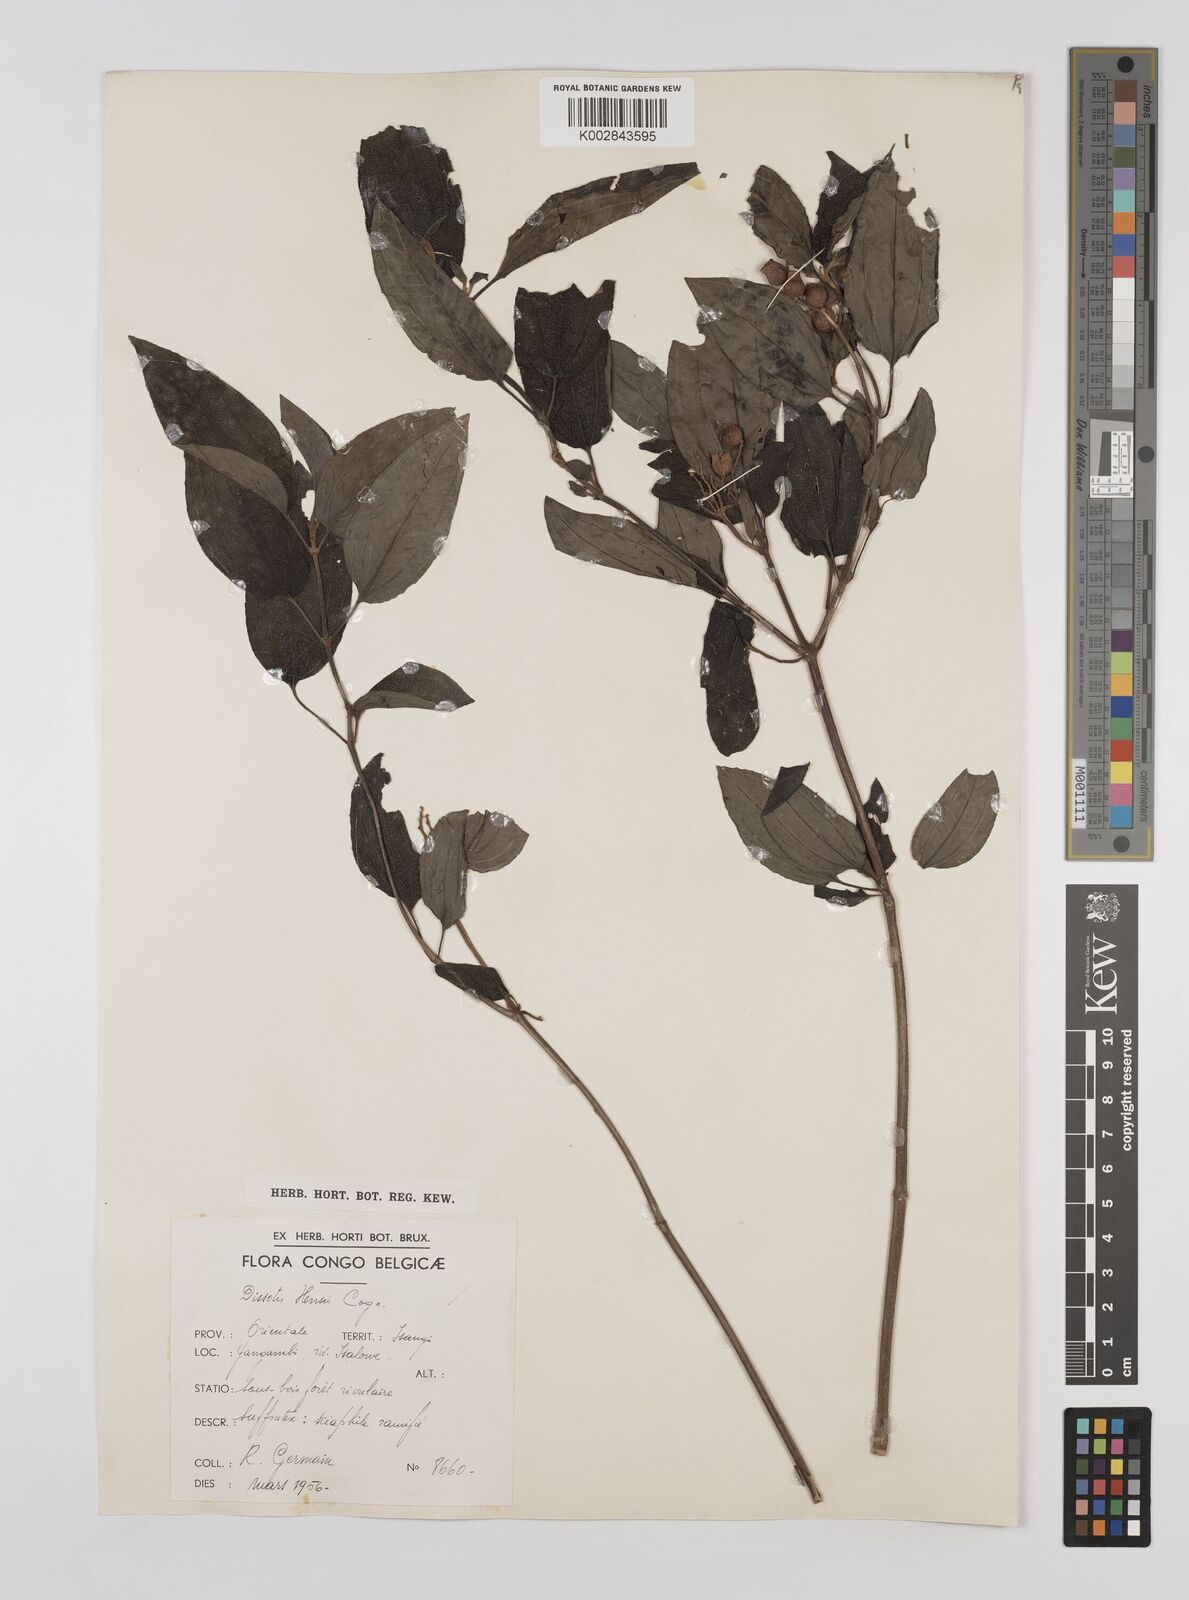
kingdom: Plantae
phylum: Tracheophyta
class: Magnoliopsida
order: Myrtales
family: Melastomataceae
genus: Dupineta
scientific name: Dupineta hensii
